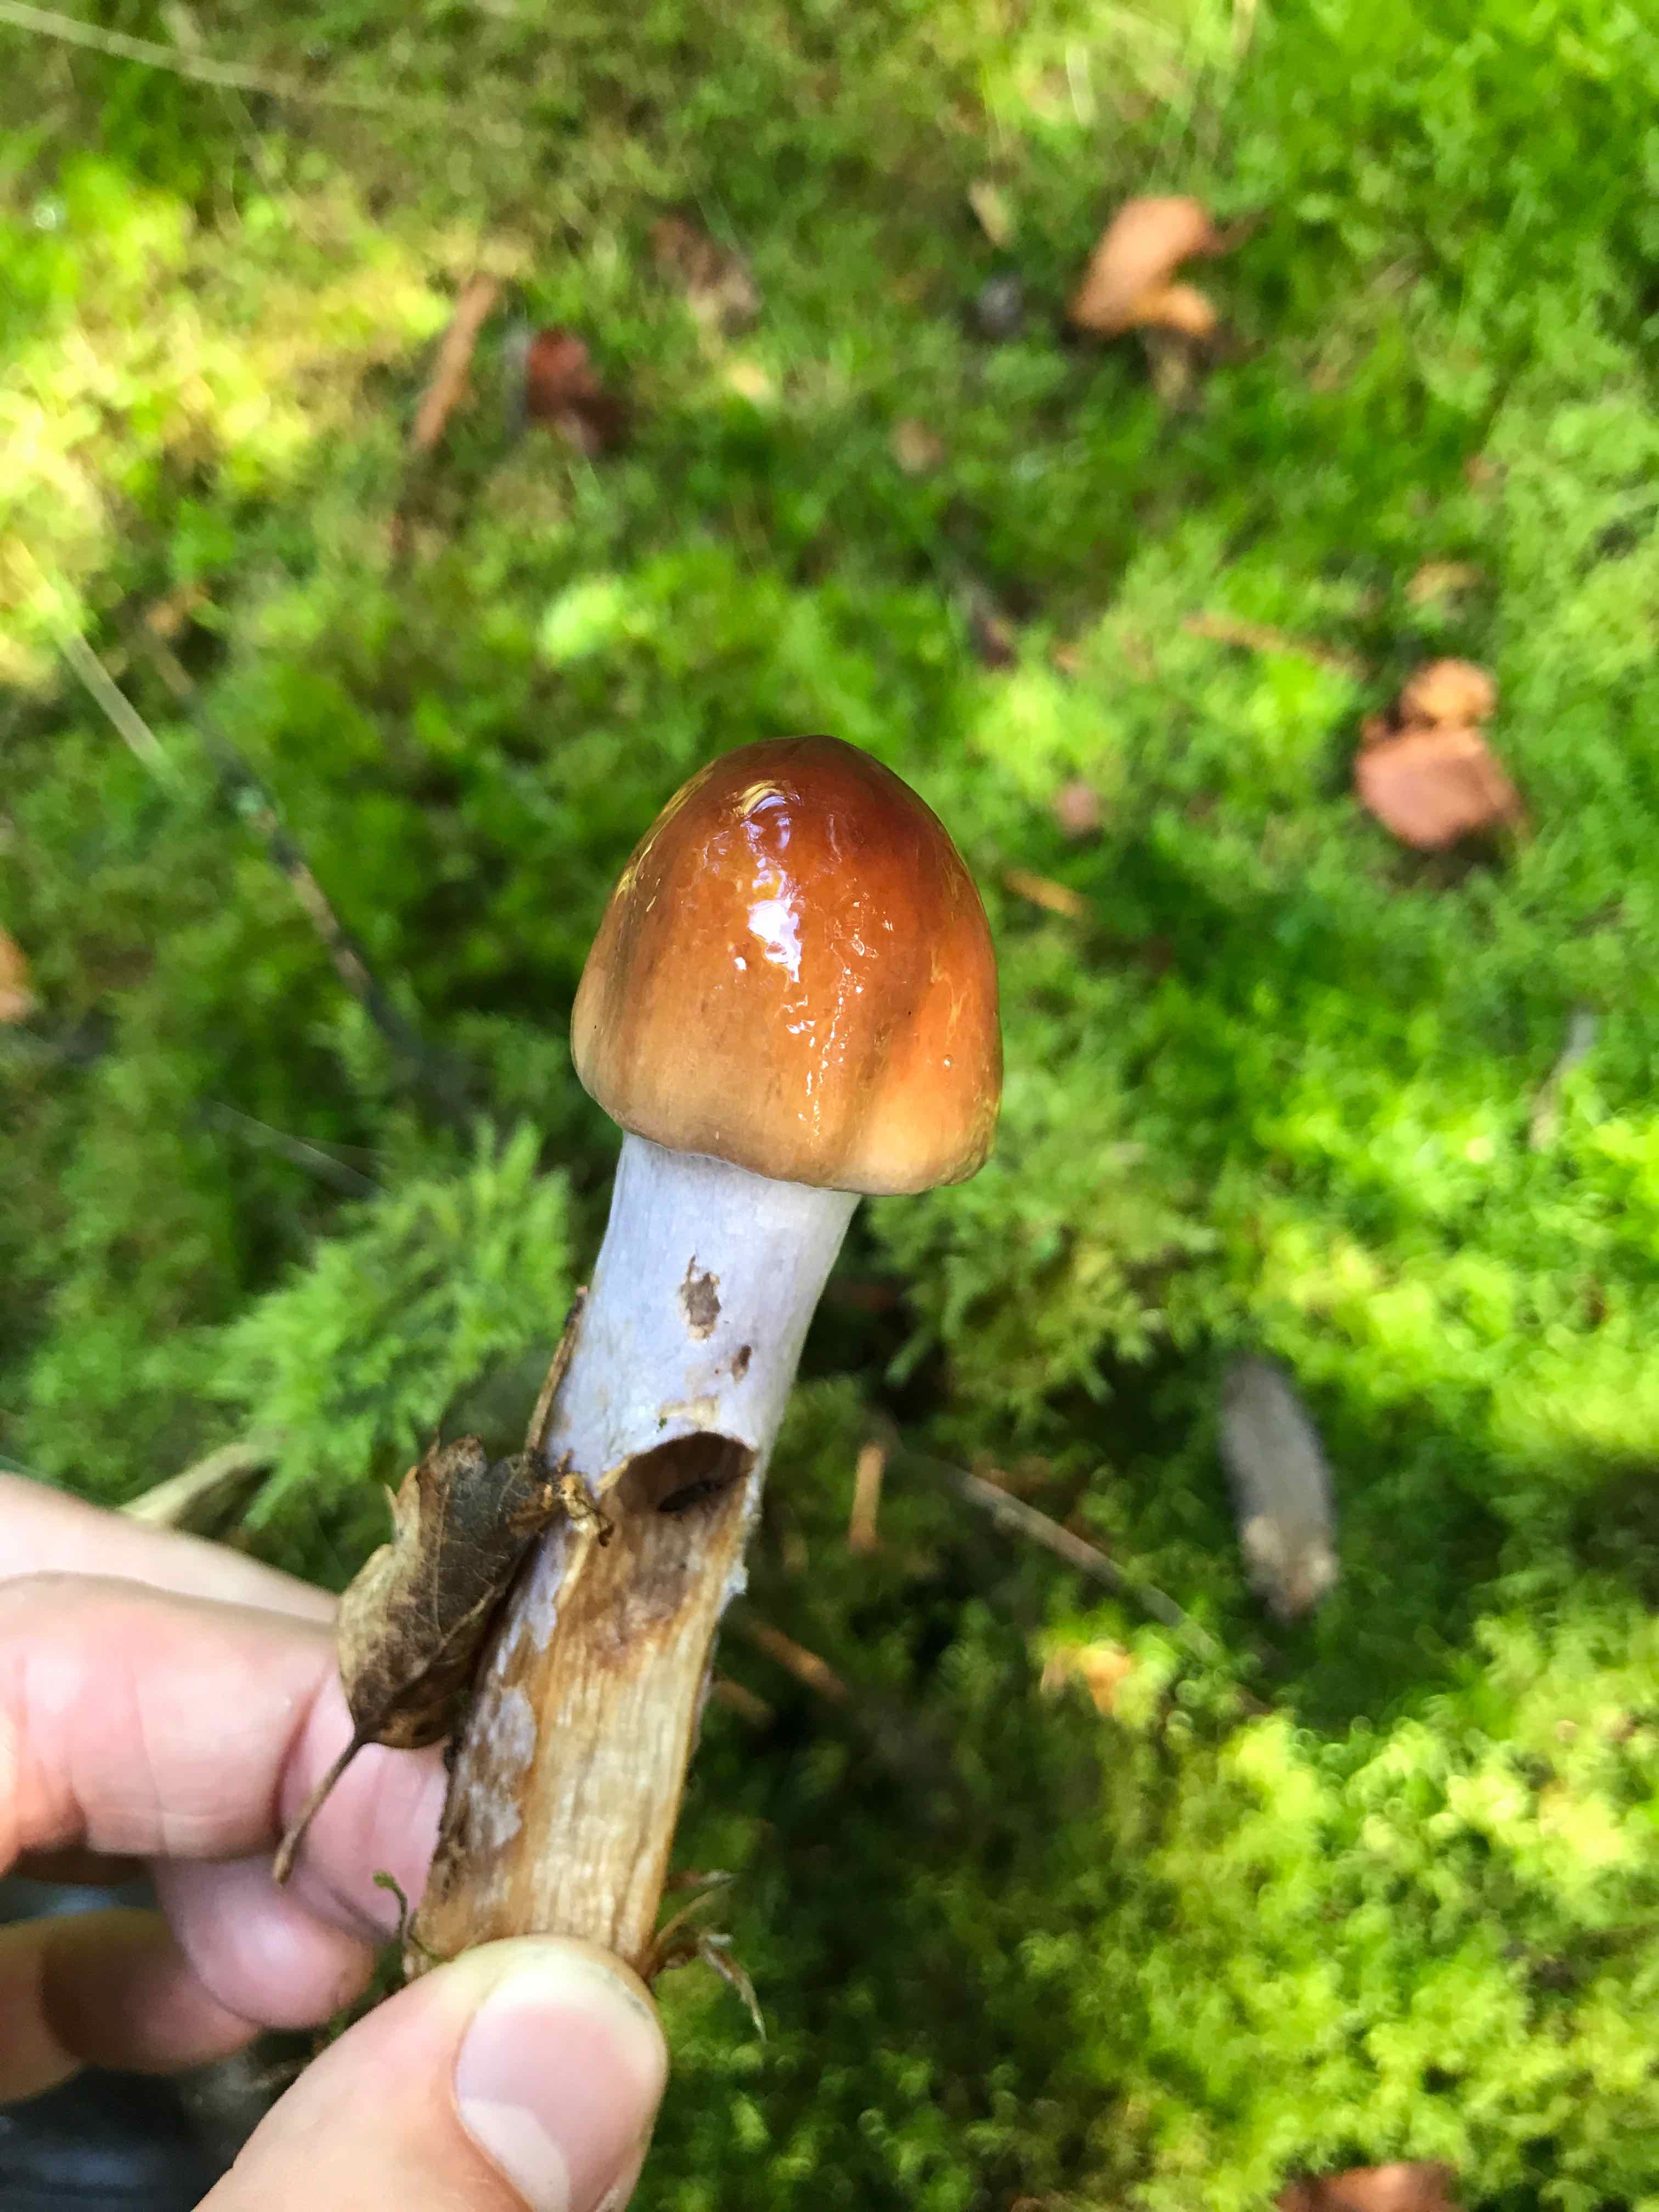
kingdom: Fungi
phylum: Basidiomycota
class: Agaricomycetes
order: Agaricales
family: Cortinariaceae
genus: Cortinarius
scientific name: Cortinarius
